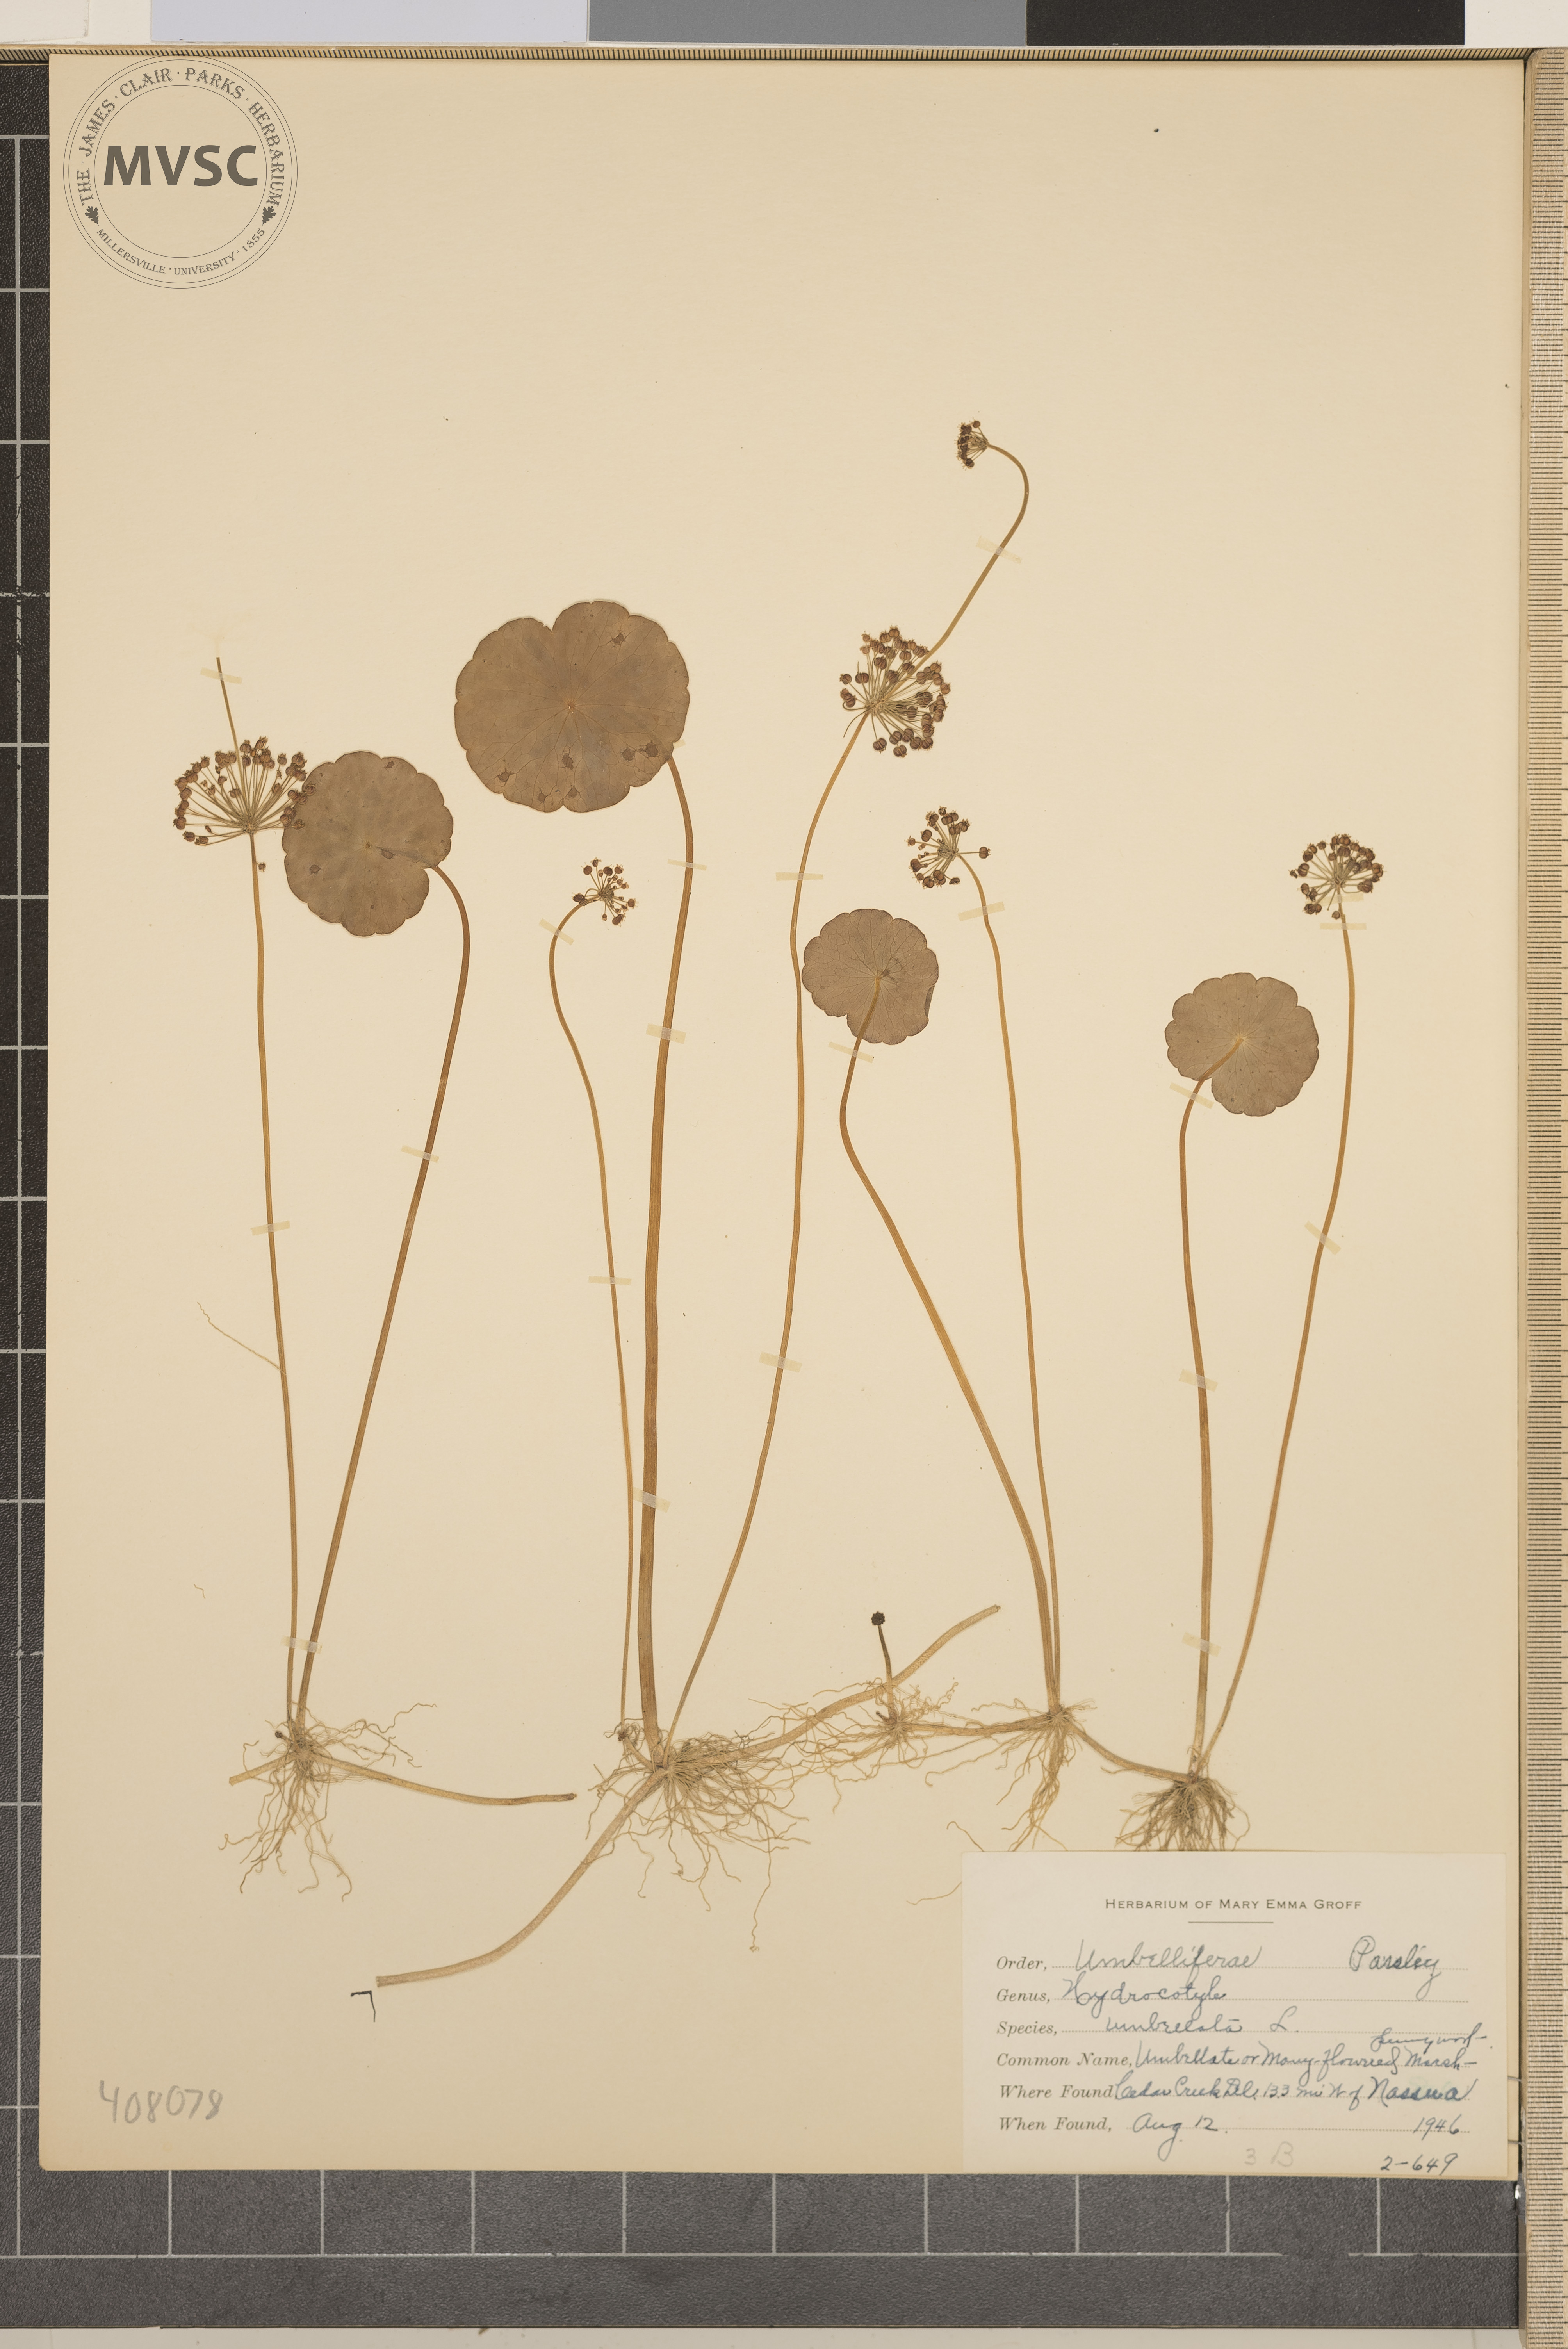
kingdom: Plantae
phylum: Tracheophyta
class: Magnoliopsida
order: Apiales
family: Araliaceae
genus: Hydrocotyle
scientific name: Hydrocotyle umbellata
